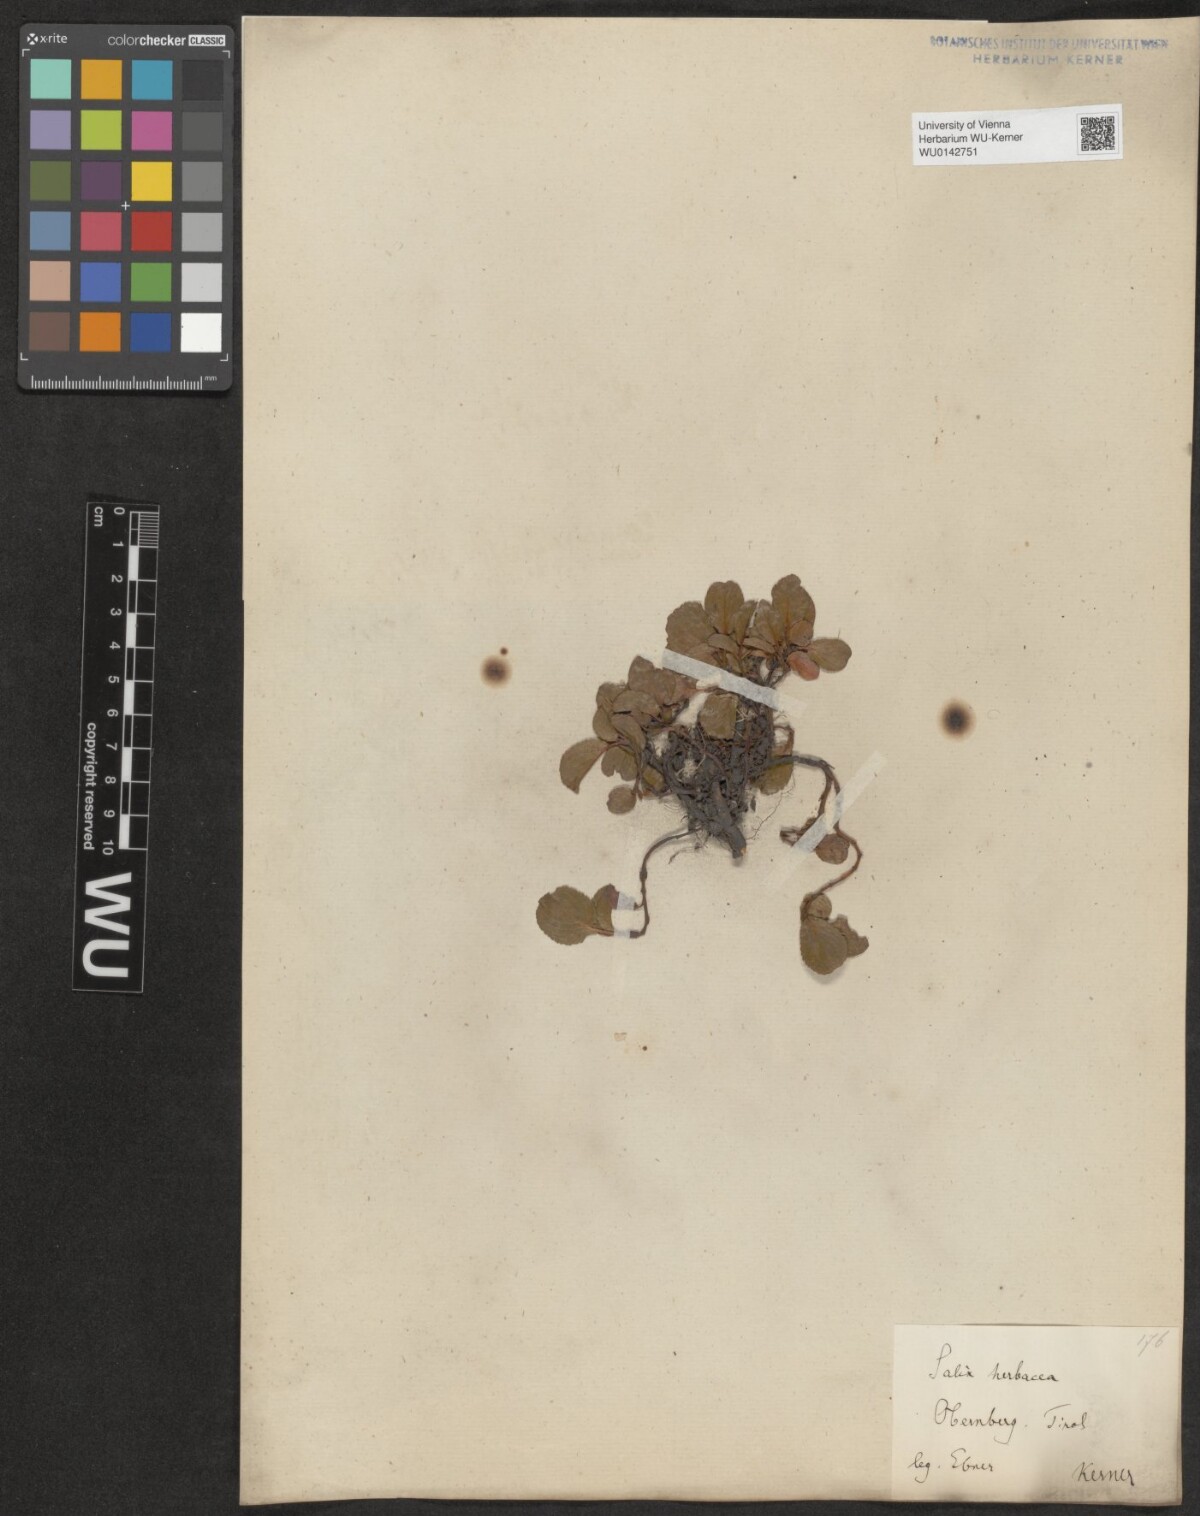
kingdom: Plantae
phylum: Tracheophyta
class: Magnoliopsida
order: Malpighiales
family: Salicaceae
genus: Salix
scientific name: Salix herbacea
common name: Dwarf willow
